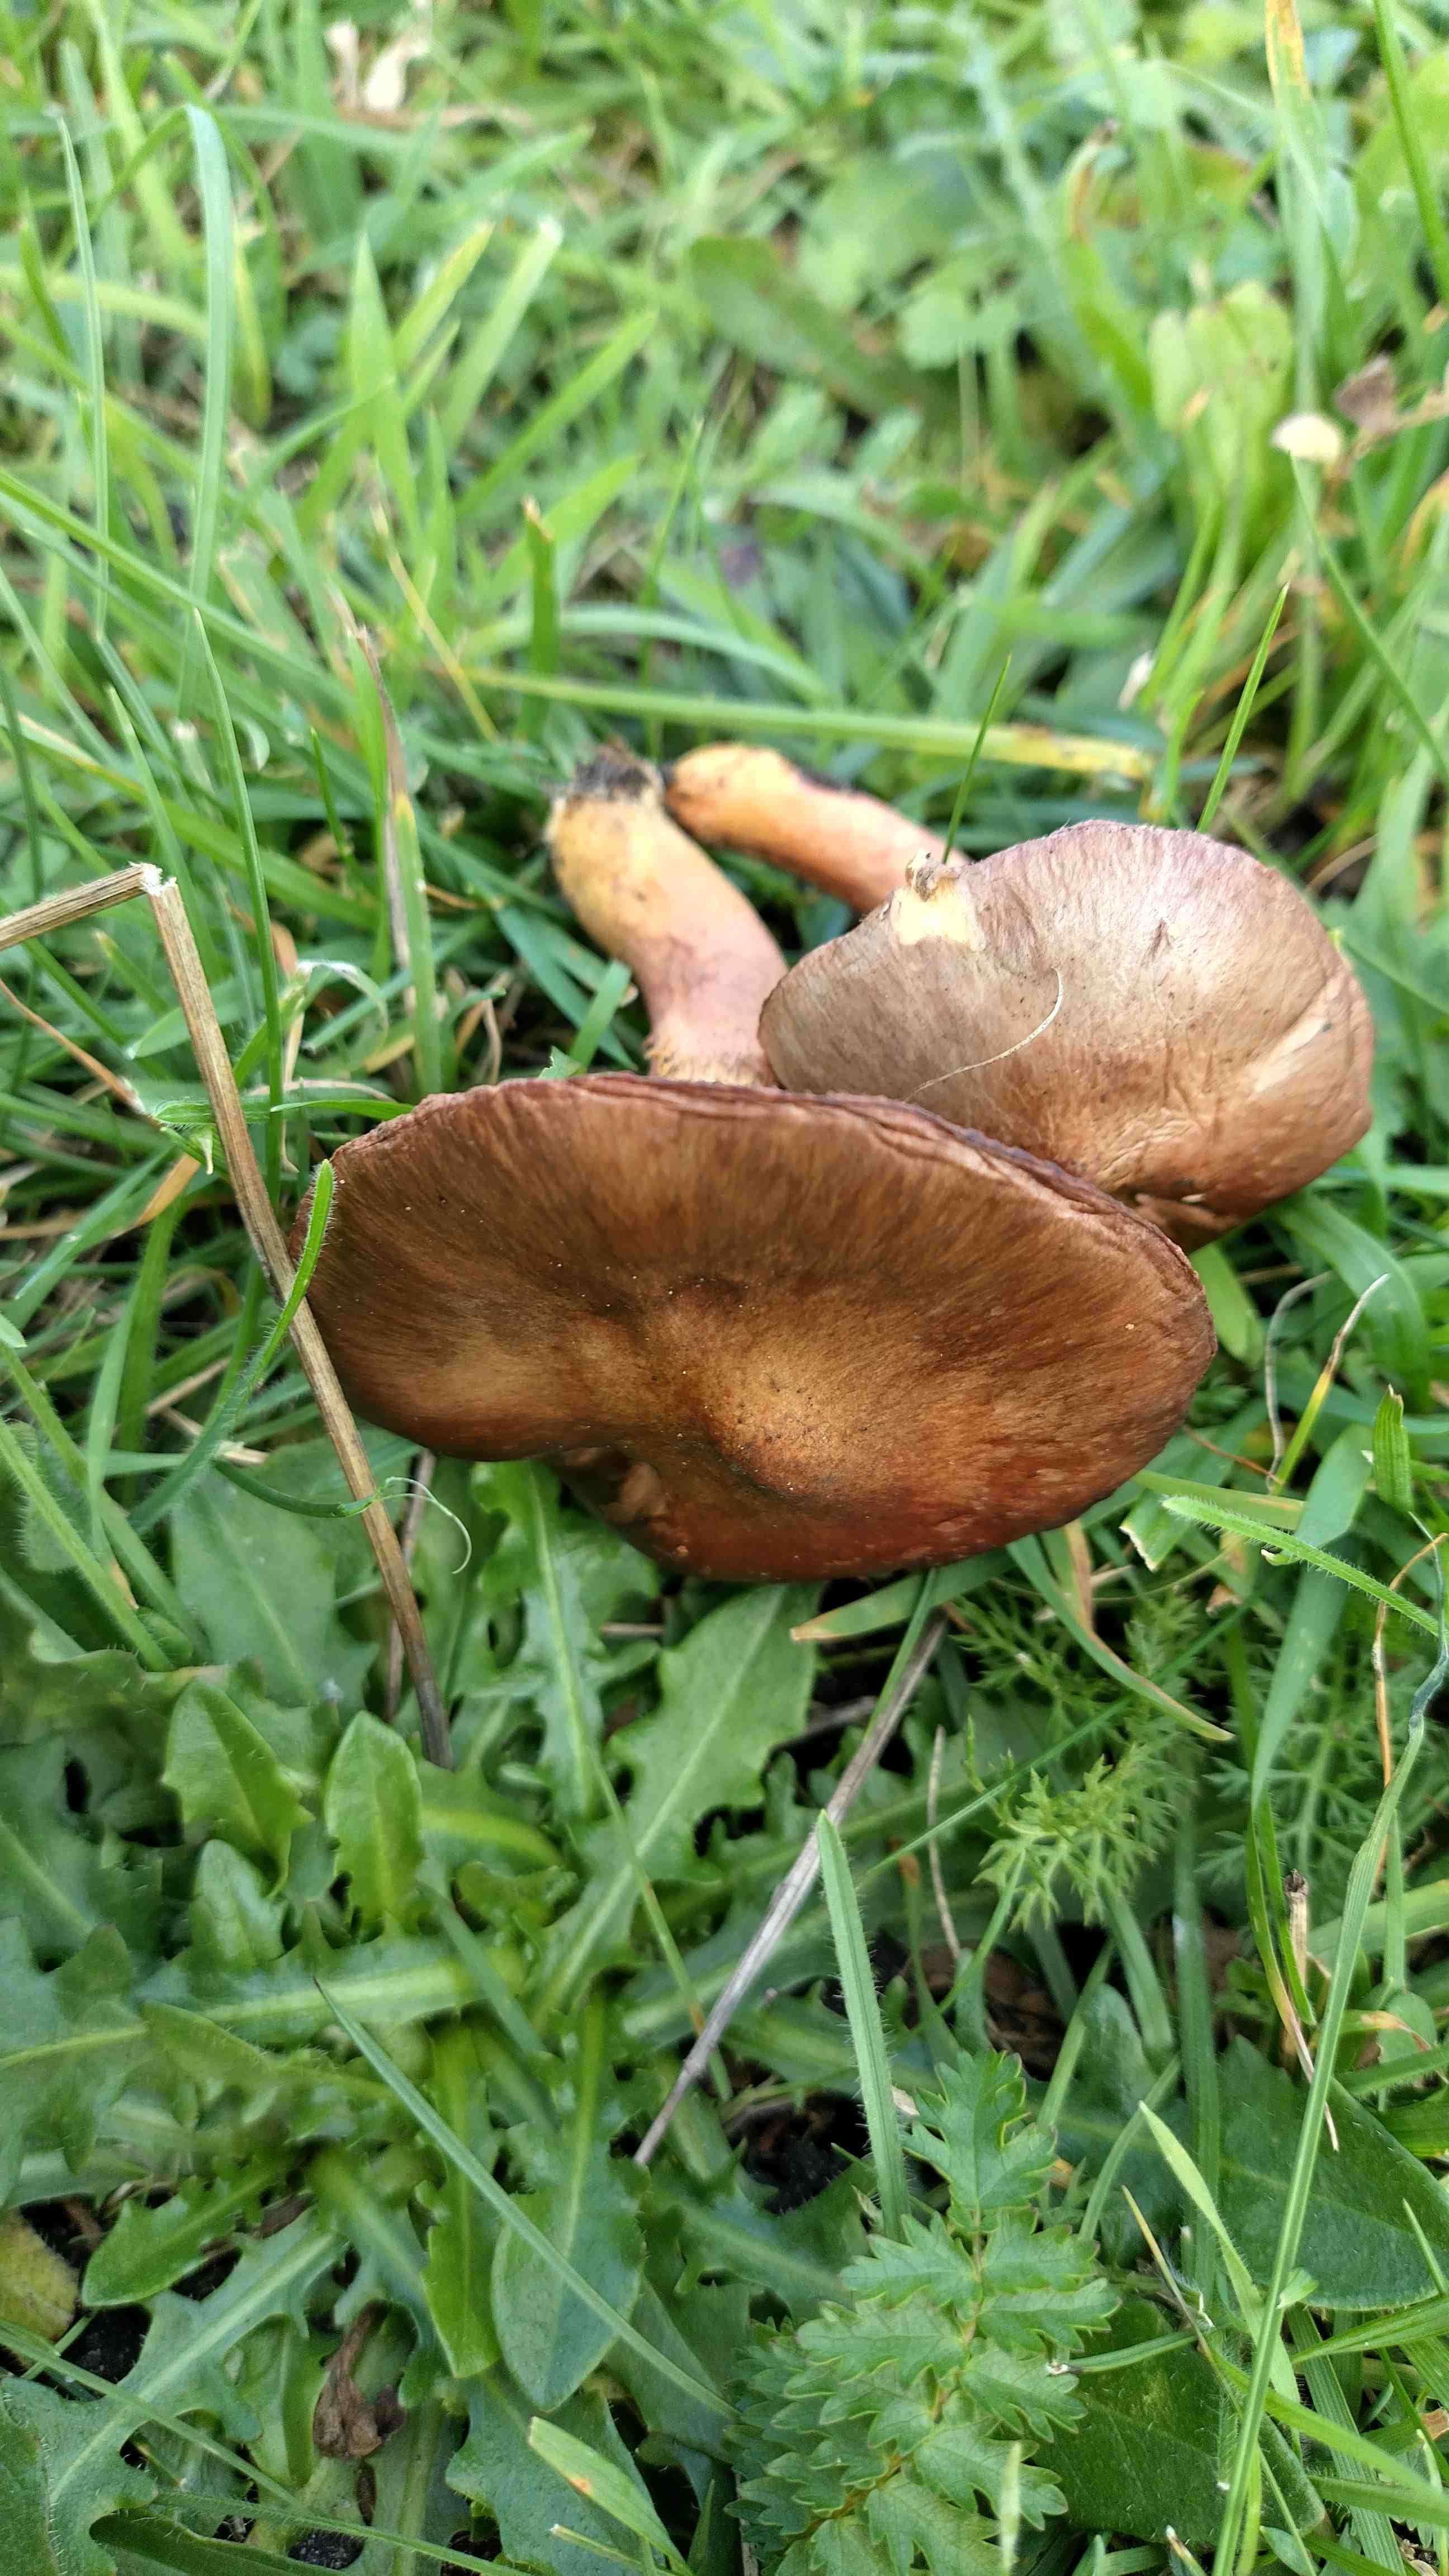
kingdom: Fungi
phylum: Basidiomycota
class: Agaricomycetes
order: Boletales
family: Gomphidiaceae
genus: Chroogomphus
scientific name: Chroogomphus rutilus
